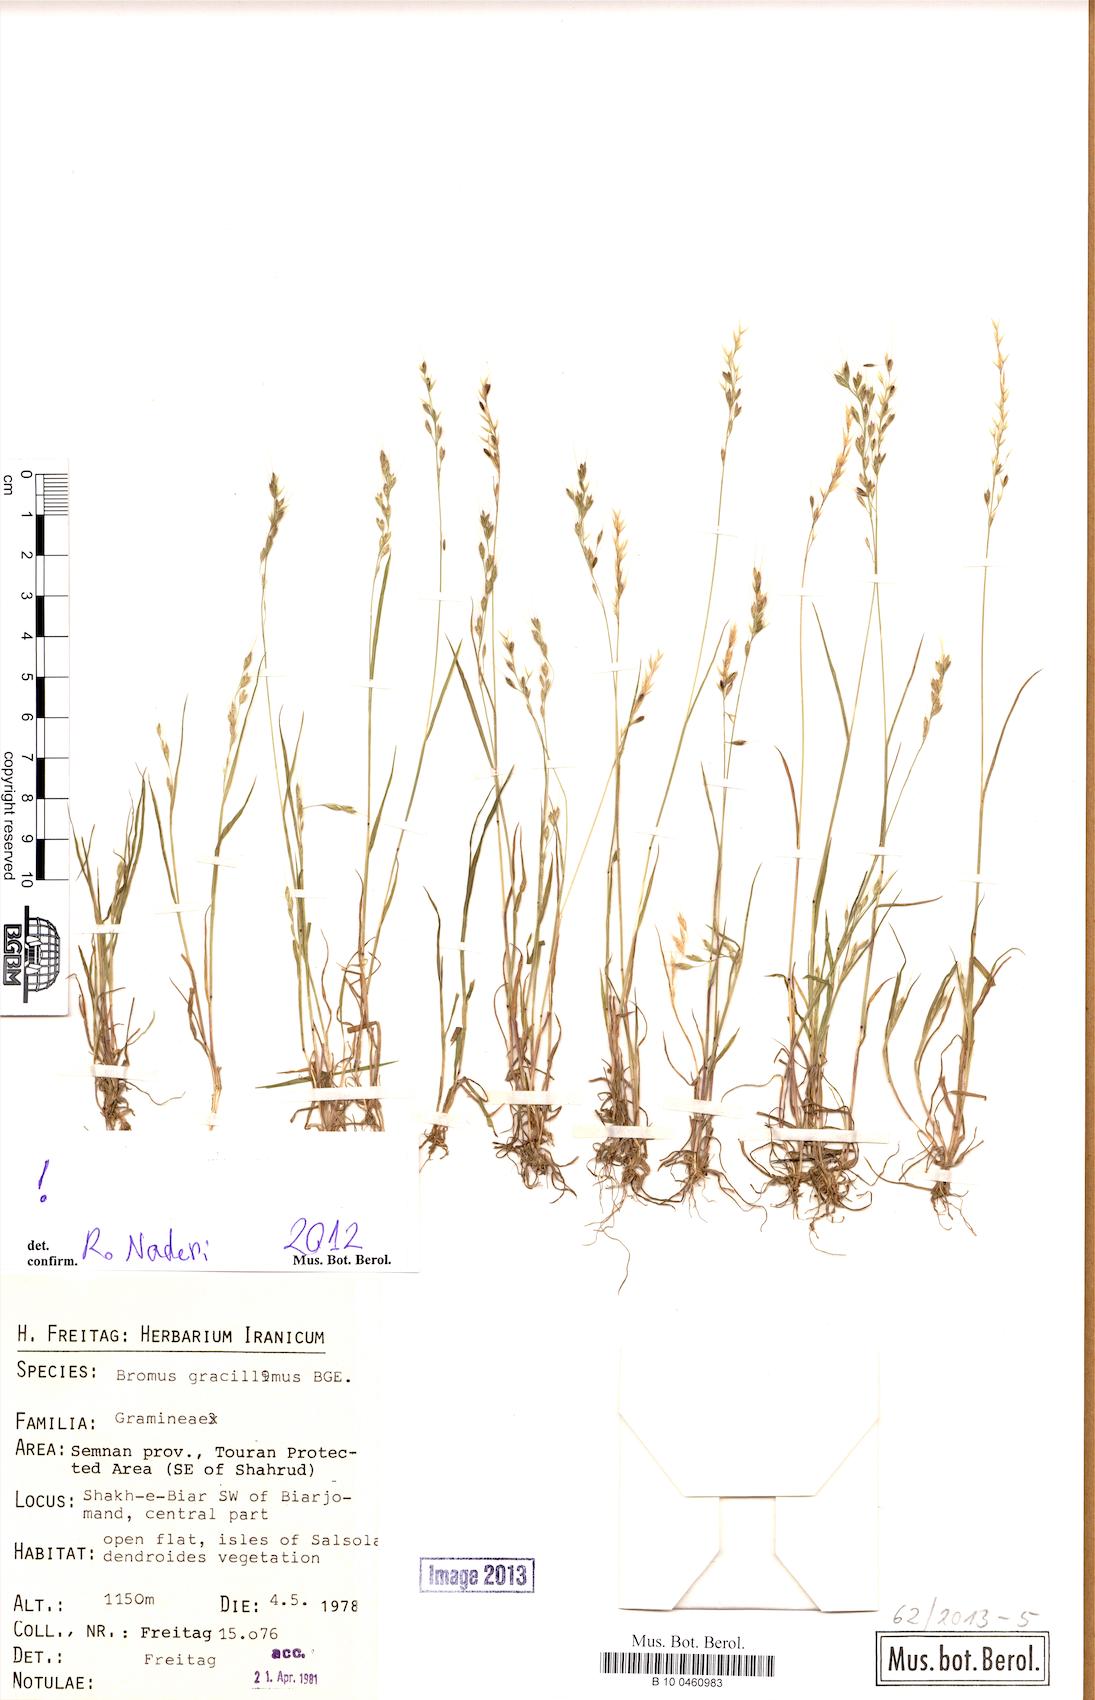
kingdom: Plantae
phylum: Tracheophyta
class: Liliopsida
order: Poales
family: Poaceae
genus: Bromus
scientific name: Bromus gracillimus
